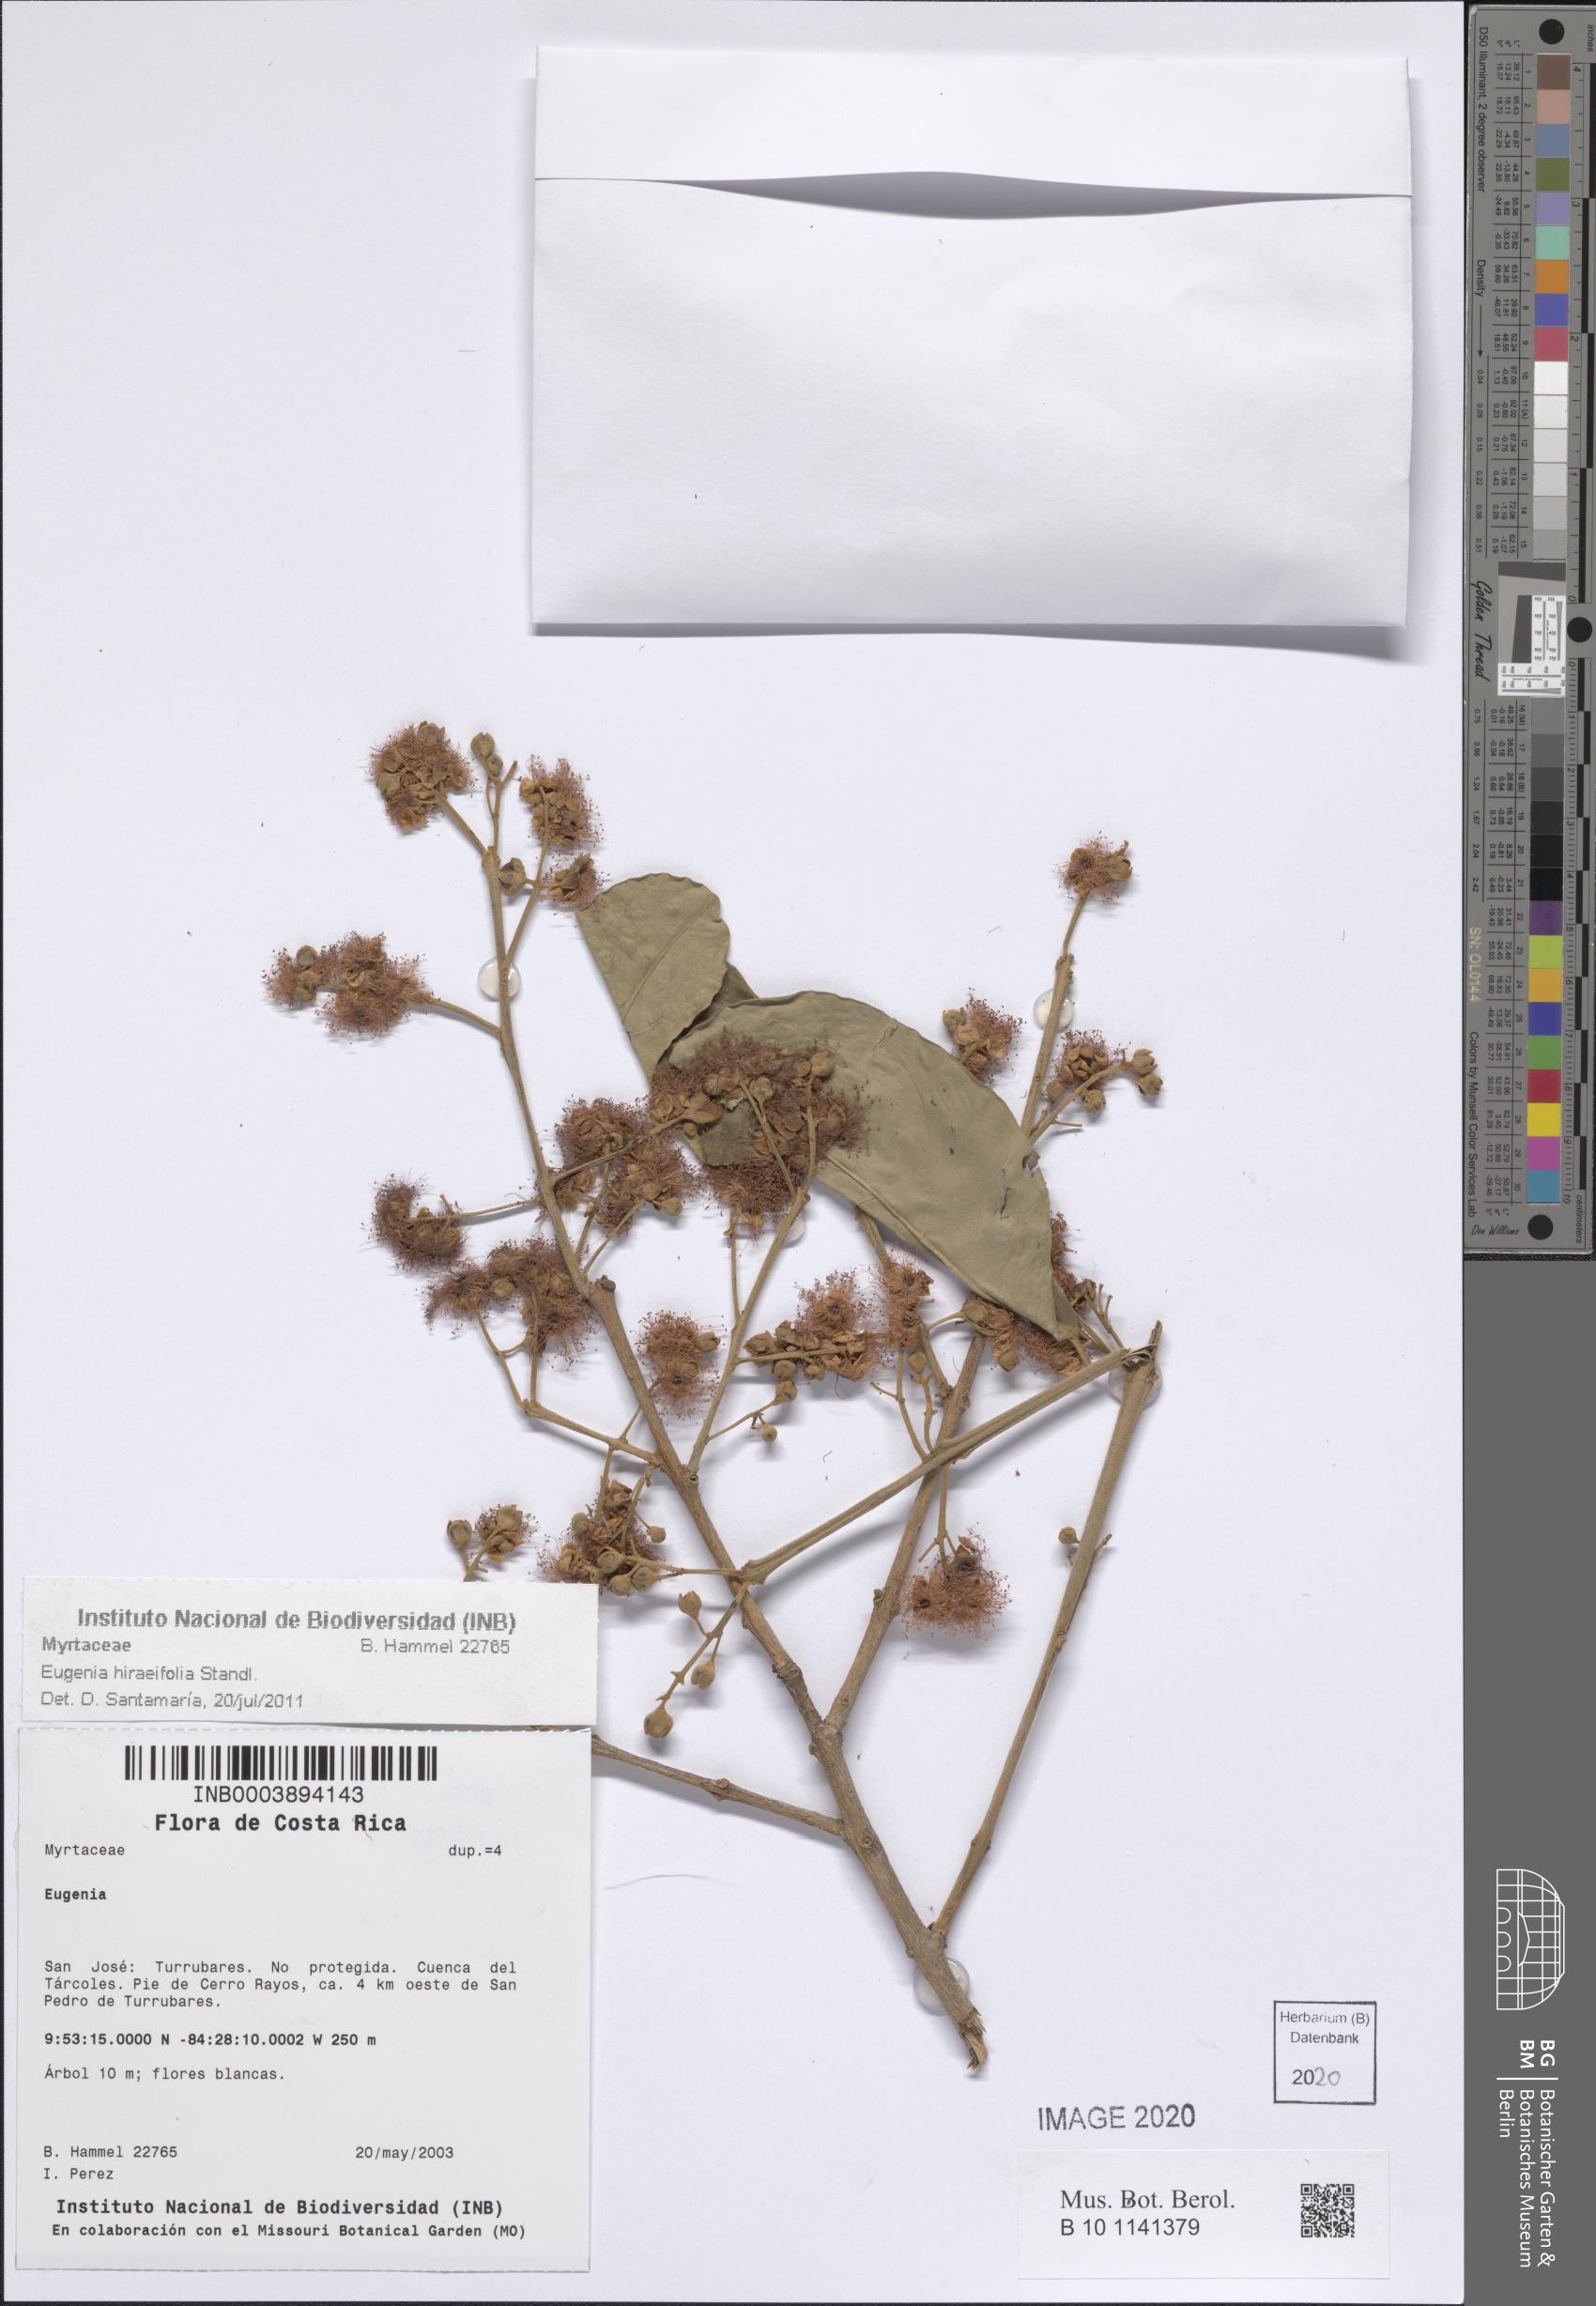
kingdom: Plantae
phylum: Tracheophyta
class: Magnoliopsida
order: Myrtales
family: Myrtaceae
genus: Eugenia
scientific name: Eugenia
